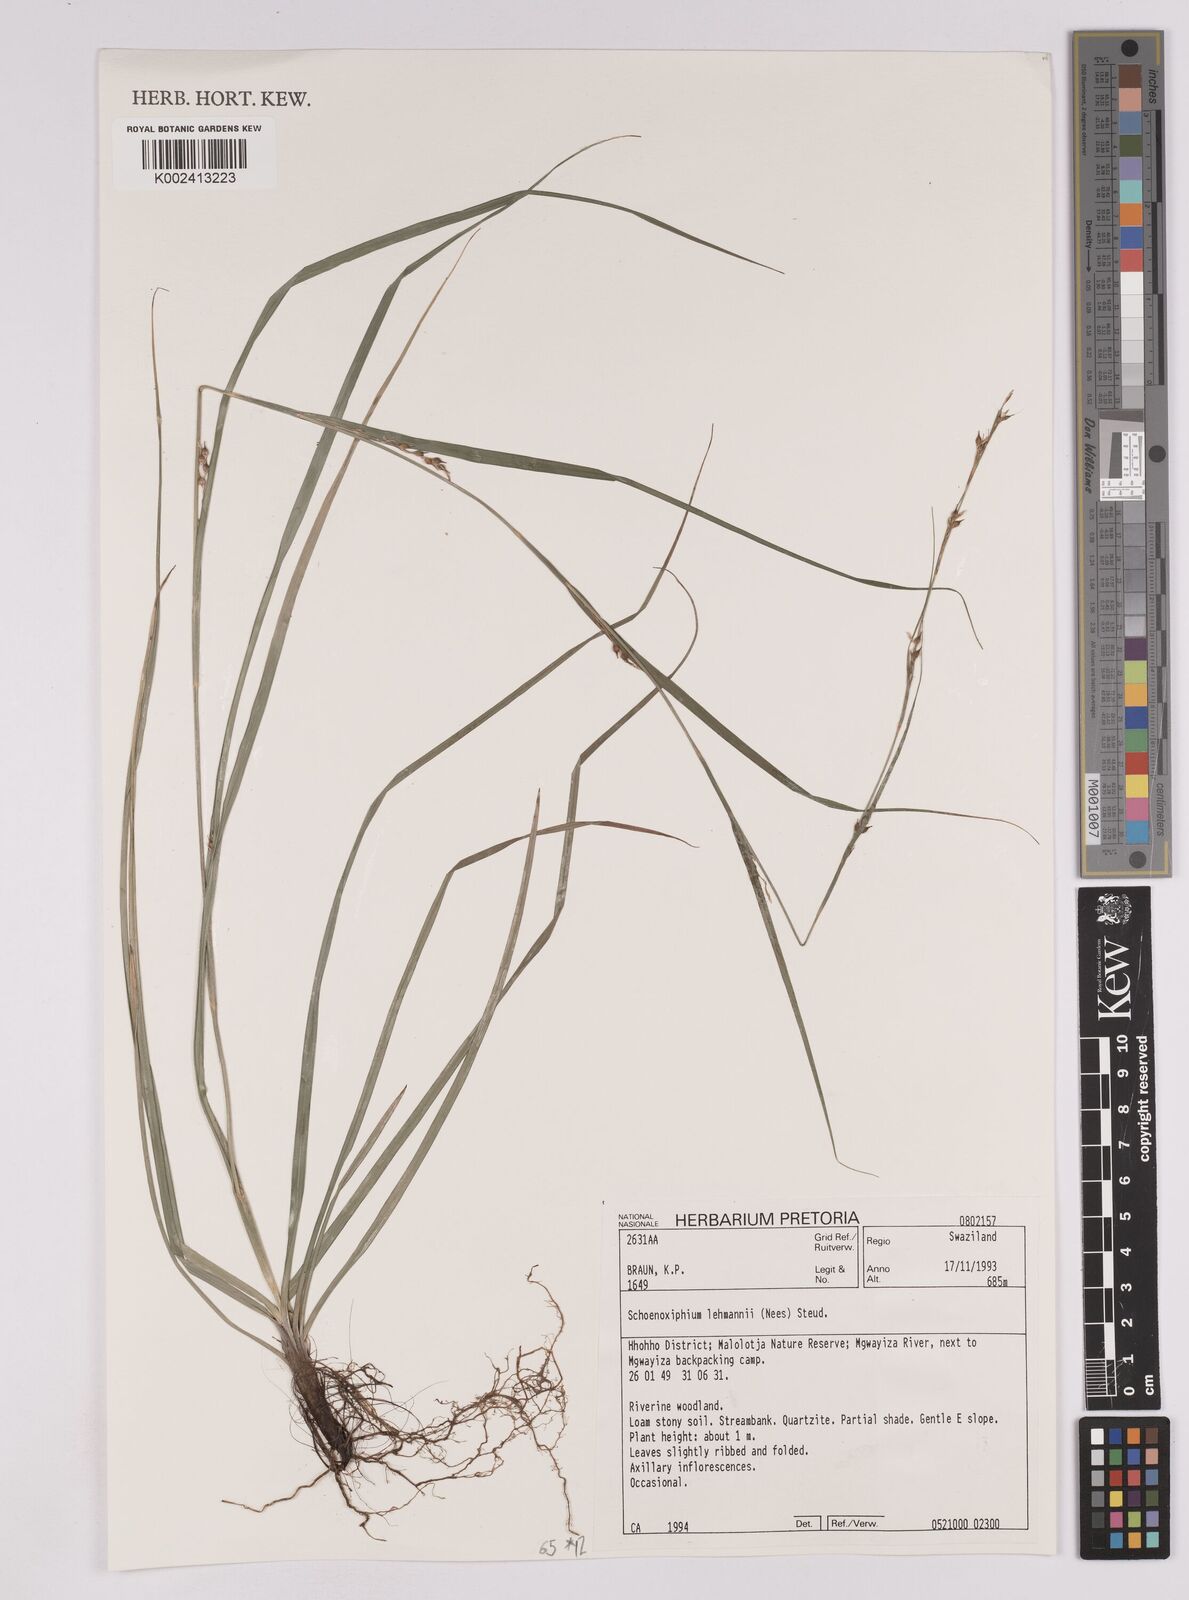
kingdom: Plantae
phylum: Tracheophyta
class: Liliopsida
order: Poales
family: Cyperaceae
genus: Carex
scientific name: Carex uhligii
